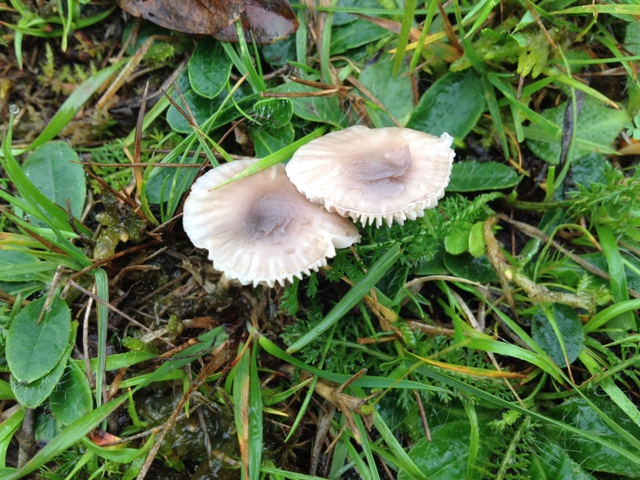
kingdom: Fungi
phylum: Basidiomycota
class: Agaricomycetes
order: Agaricales
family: Hygrophoraceae
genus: Cuphophyllus
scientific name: Cuphophyllus flavipes
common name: gulfodet vokshat
